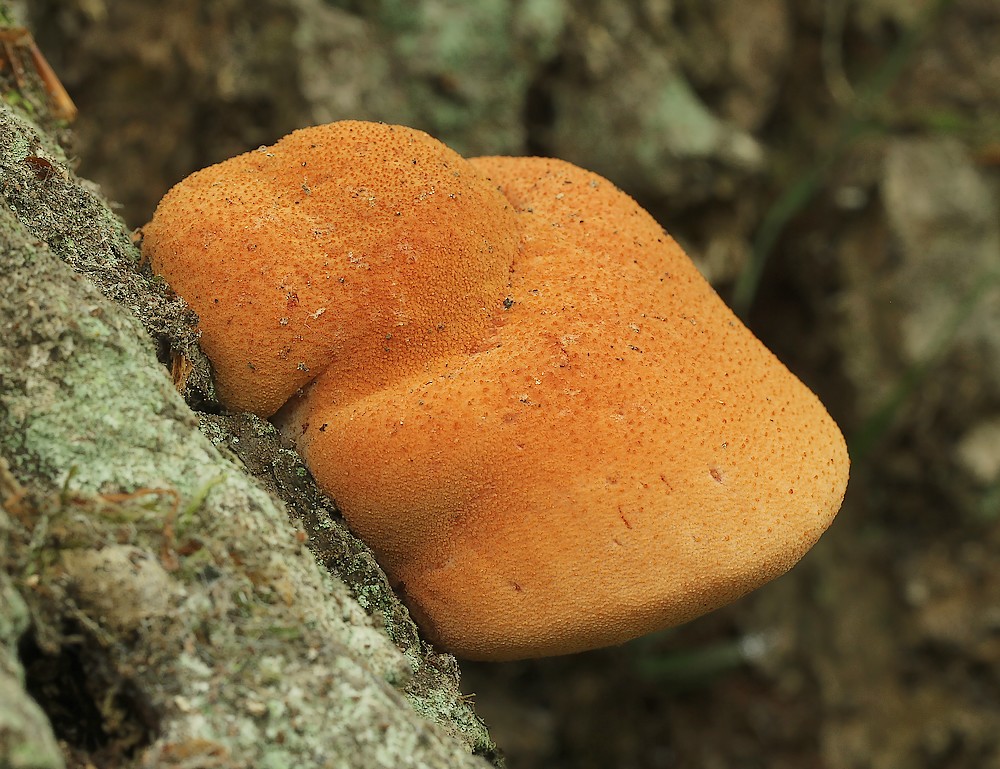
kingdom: Fungi
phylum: Basidiomycota
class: Agaricomycetes
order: Agaricales
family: Fistulinaceae
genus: Fistulina
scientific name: Fistulina hepatica
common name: oksetunge
